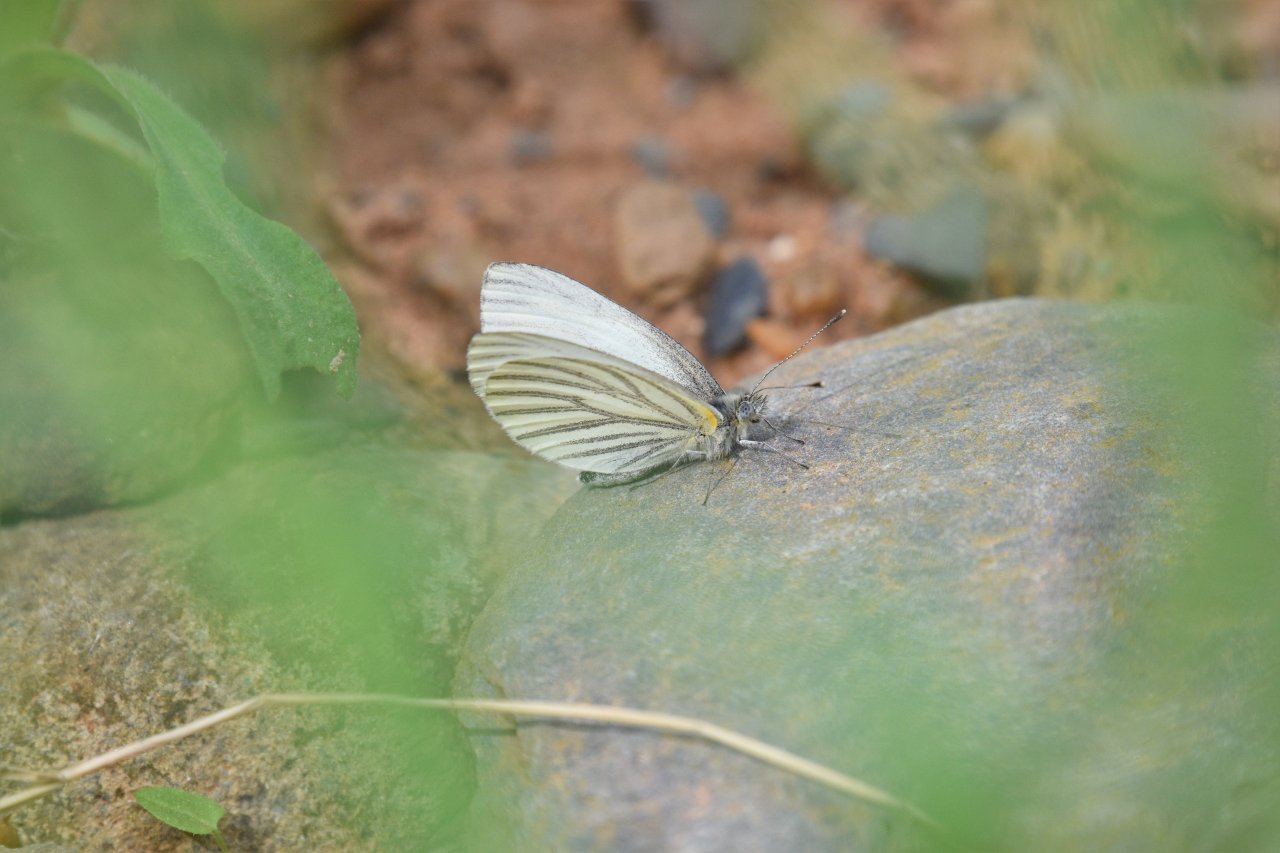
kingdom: Animalia
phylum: Arthropoda
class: Insecta
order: Lepidoptera
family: Pieridae
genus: Pieris
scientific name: Pieris oleracea
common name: Mustard White
